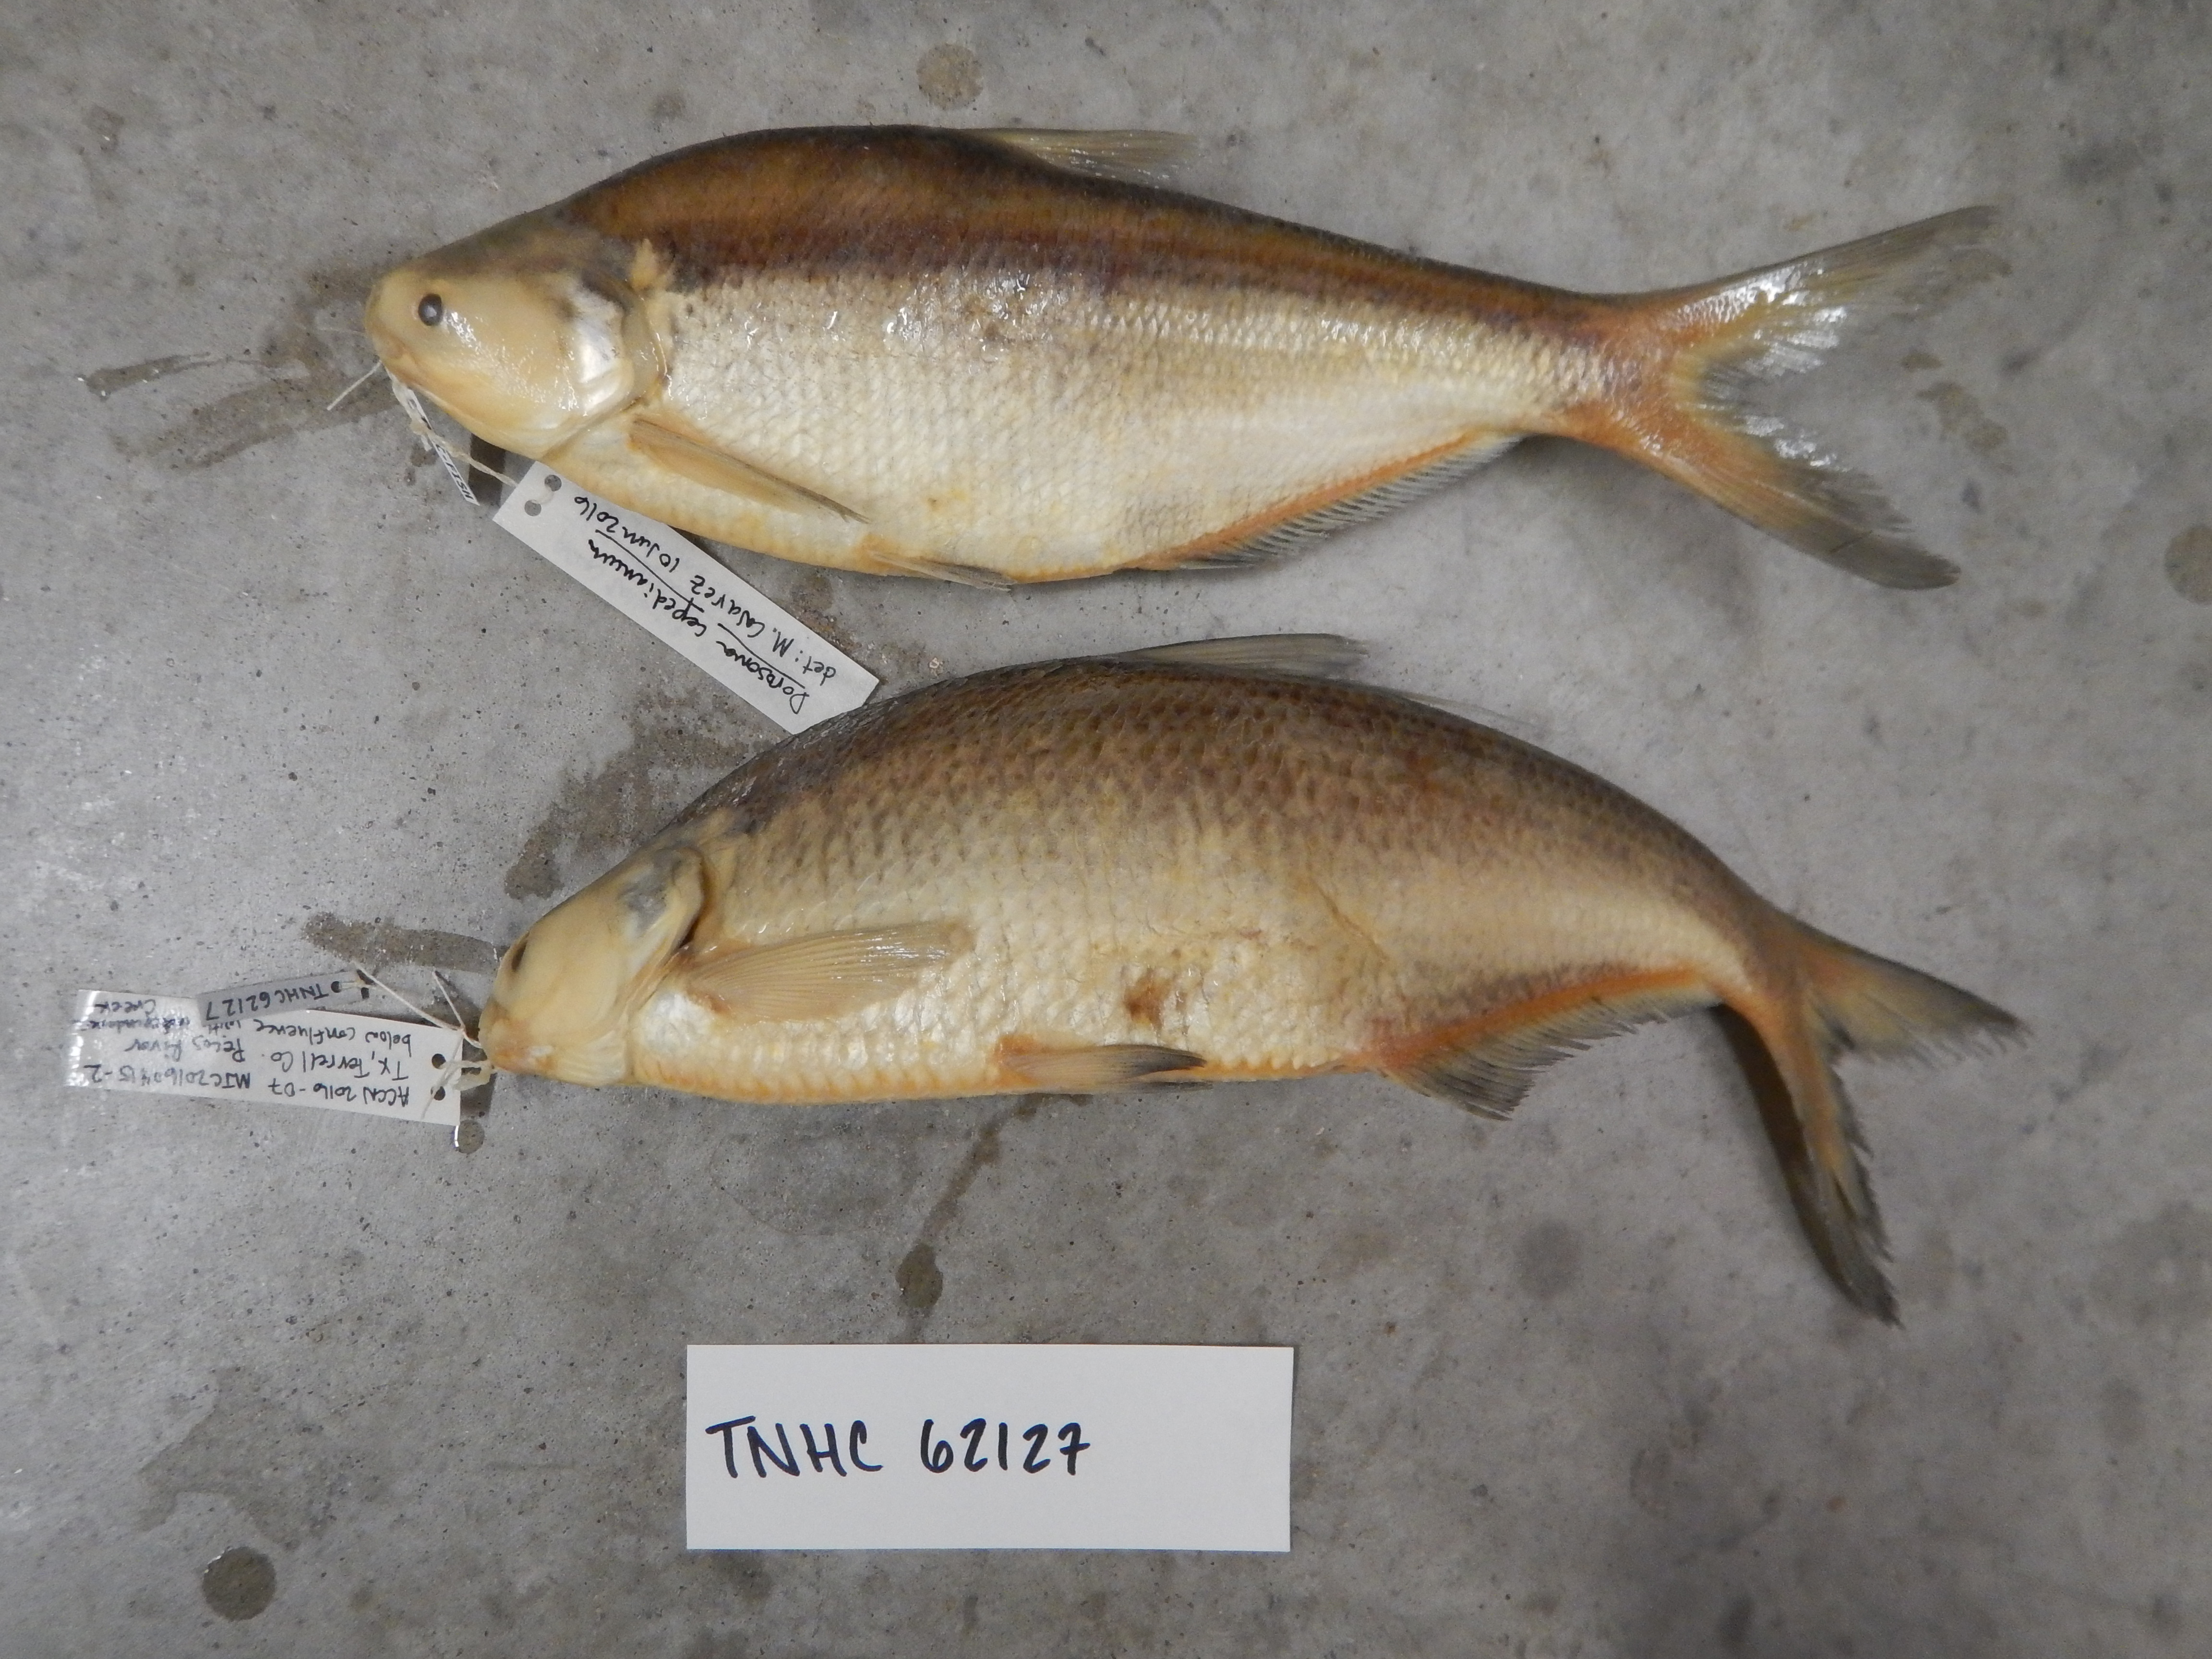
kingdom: Animalia
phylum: Chordata
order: Clupeiformes
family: Clupeidae
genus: Dorosoma
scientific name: Dorosoma cepedianum
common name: Gizzard shad
